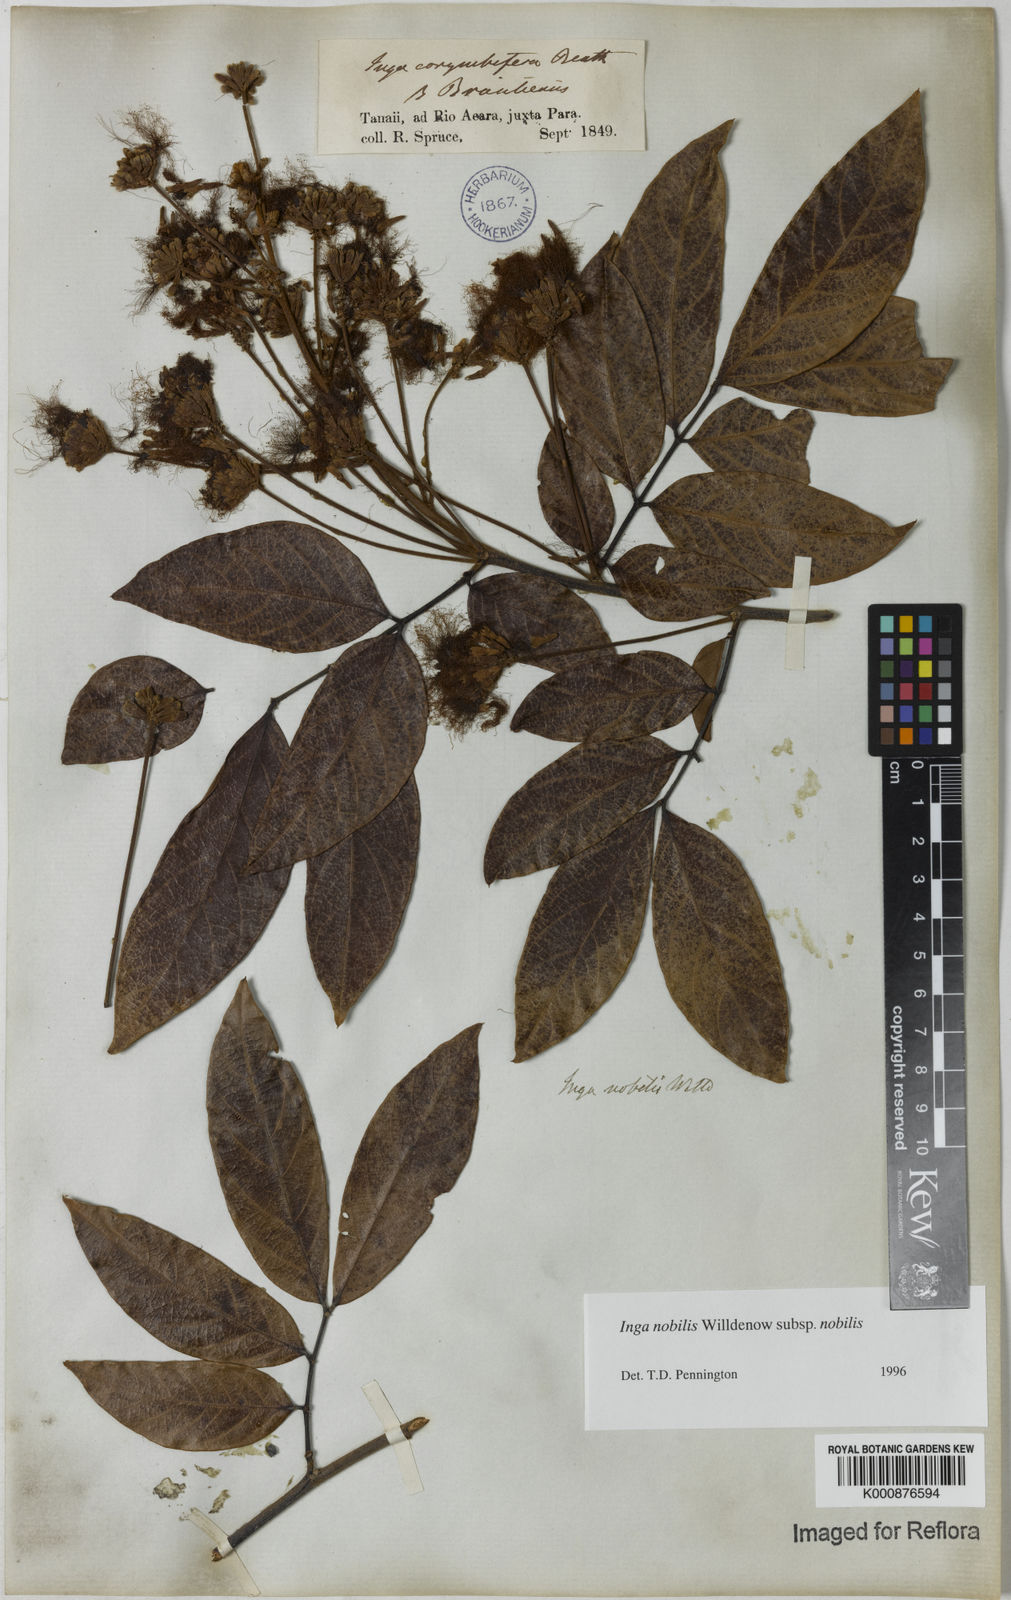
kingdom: Plantae
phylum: Tracheophyta
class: Magnoliopsida
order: Fabales
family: Fabaceae
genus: Inga
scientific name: Inga nobilis
